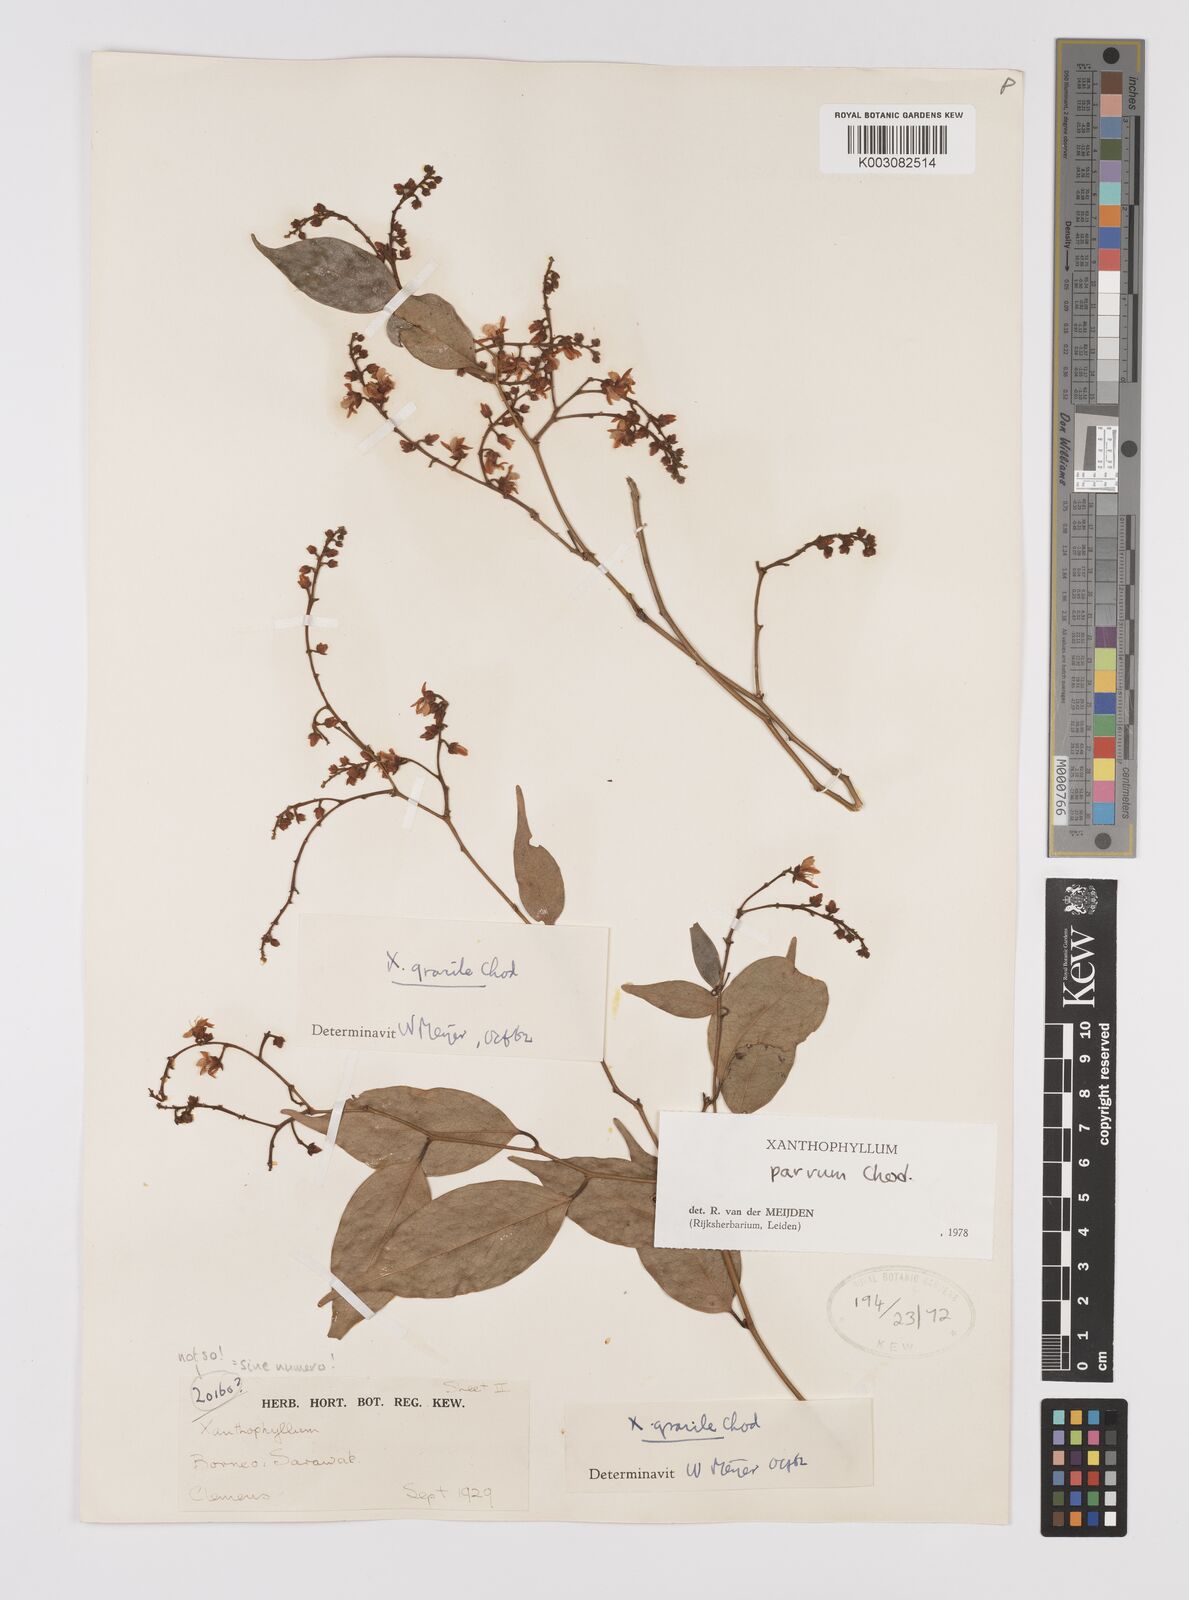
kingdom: Plantae
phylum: Tracheophyta
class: Magnoliopsida
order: Fabales
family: Polygalaceae
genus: Xanthophyllum
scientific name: Xanthophyllum griffithii
